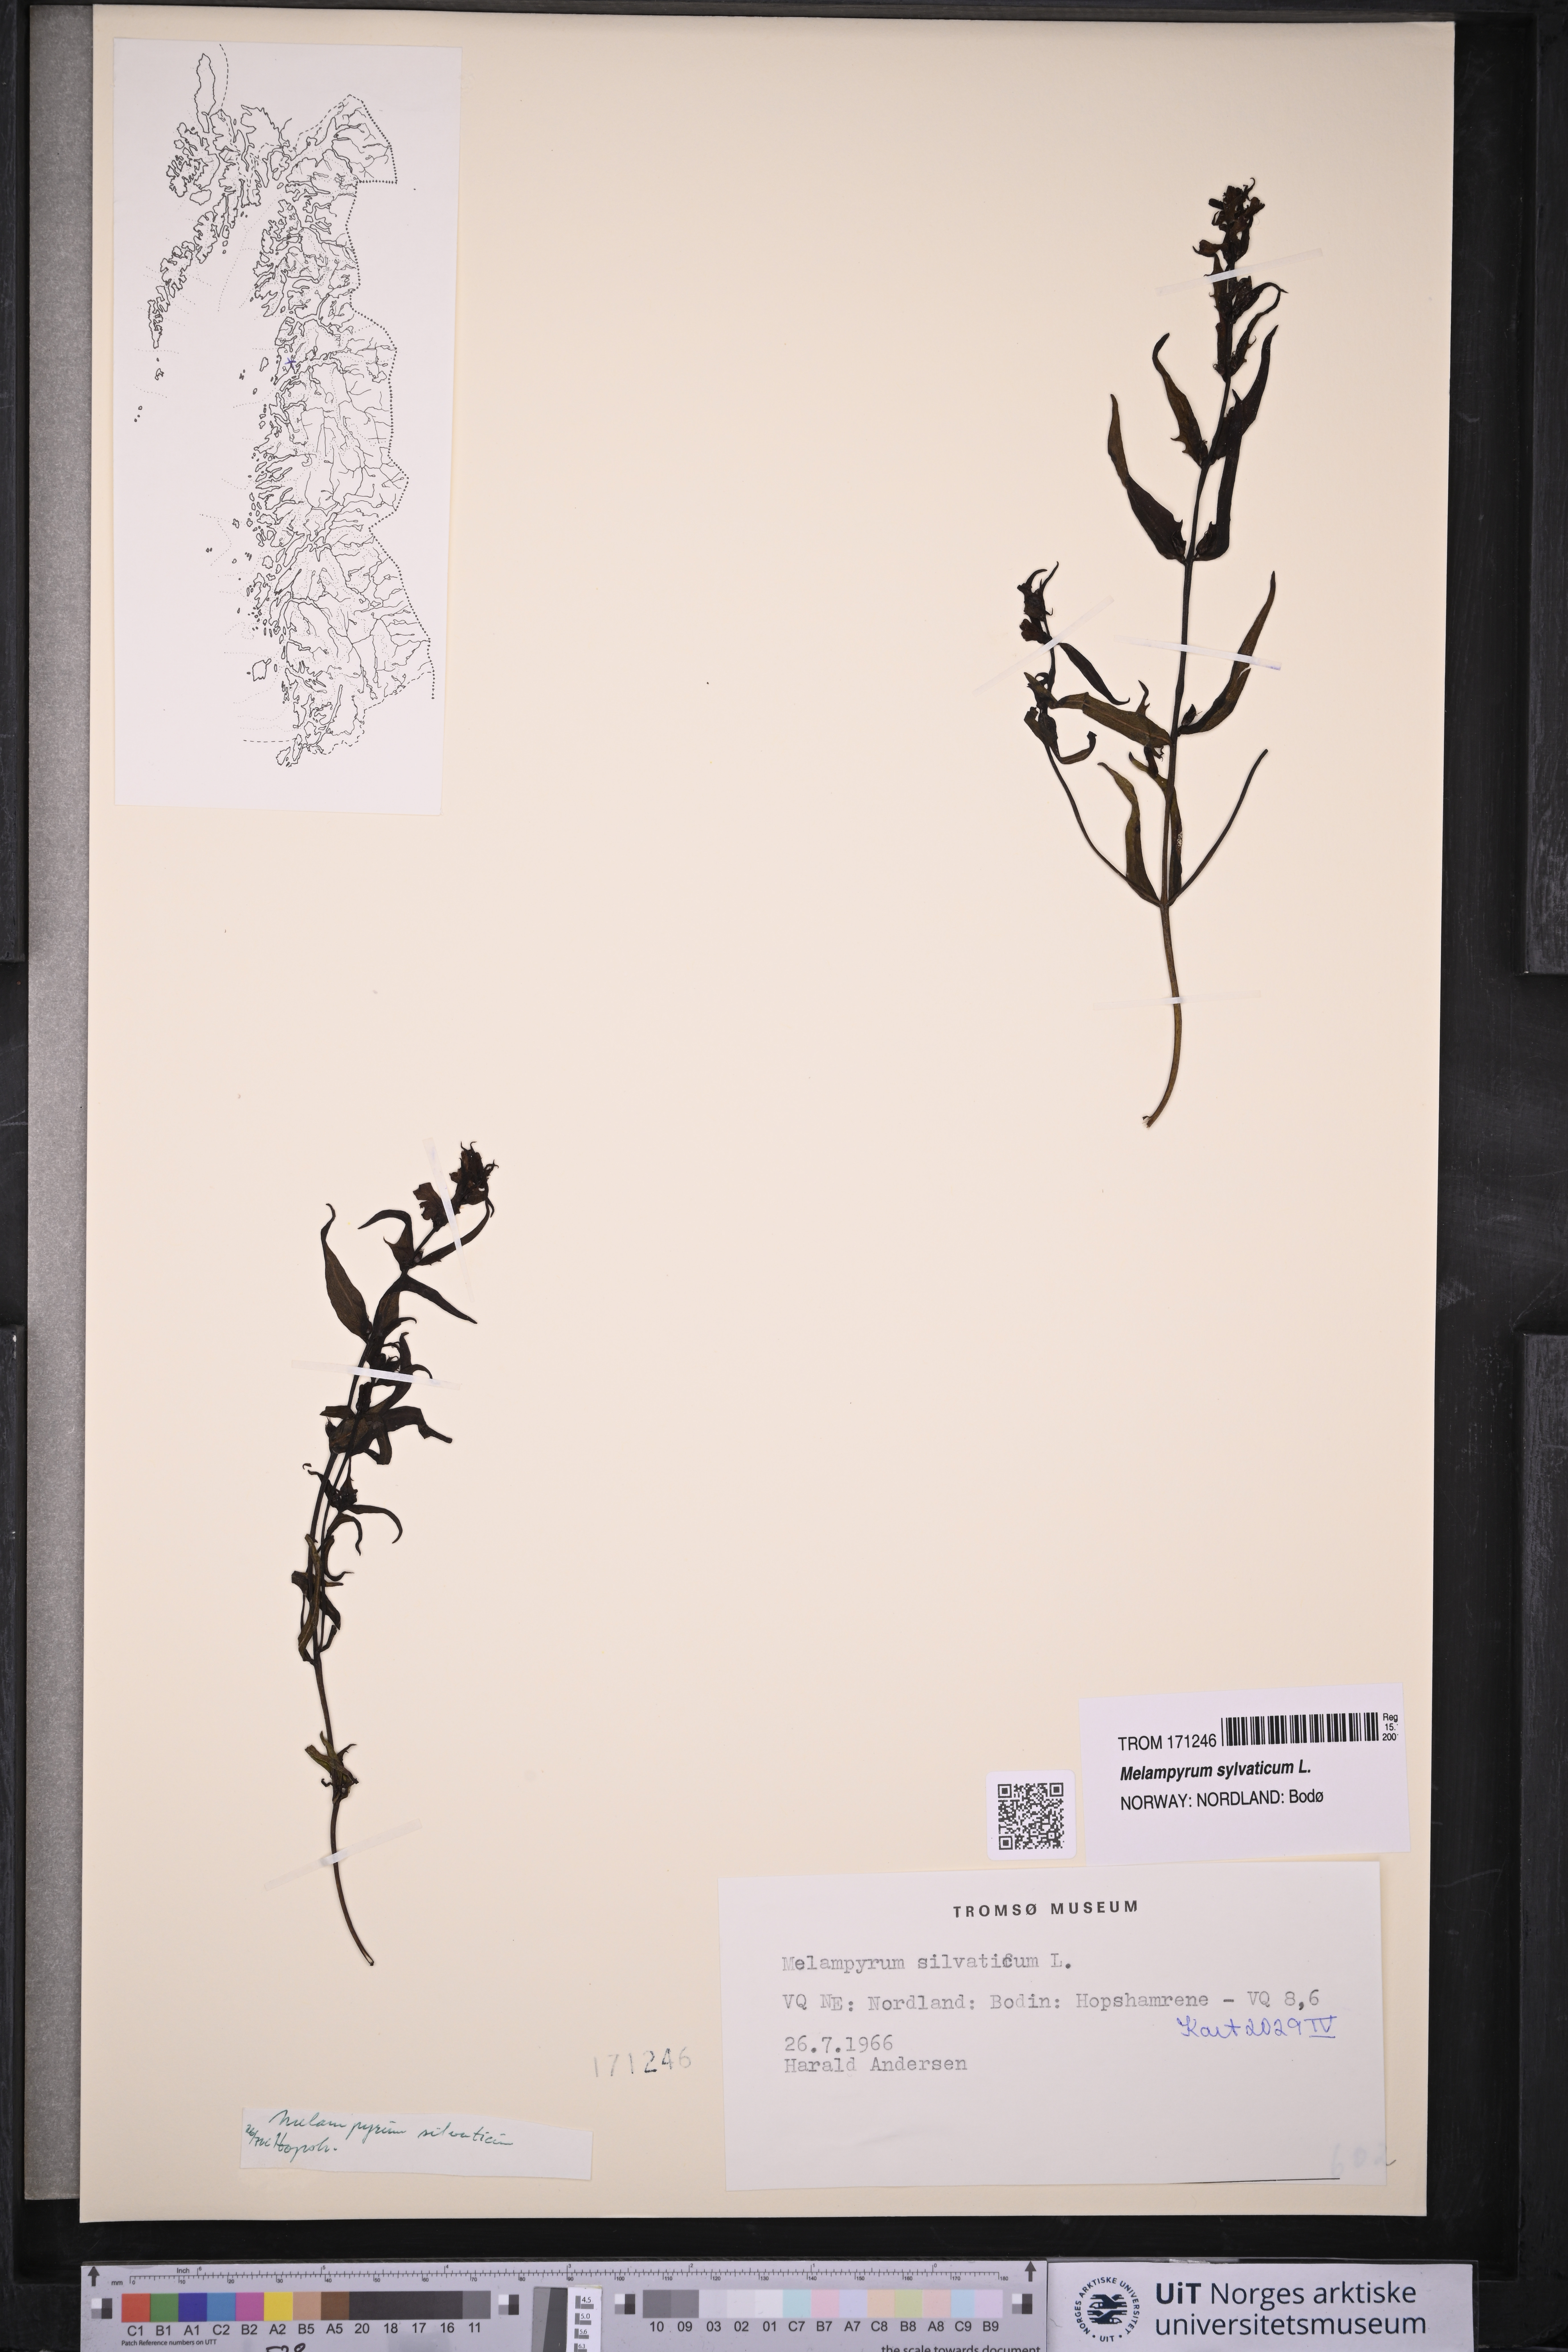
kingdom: Plantae
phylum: Tracheophyta
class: Magnoliopsida
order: Lamiales
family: Orobanchaceae
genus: Melampyrum
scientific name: Melampyrum sylvaticum
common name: Small cow-wheat
